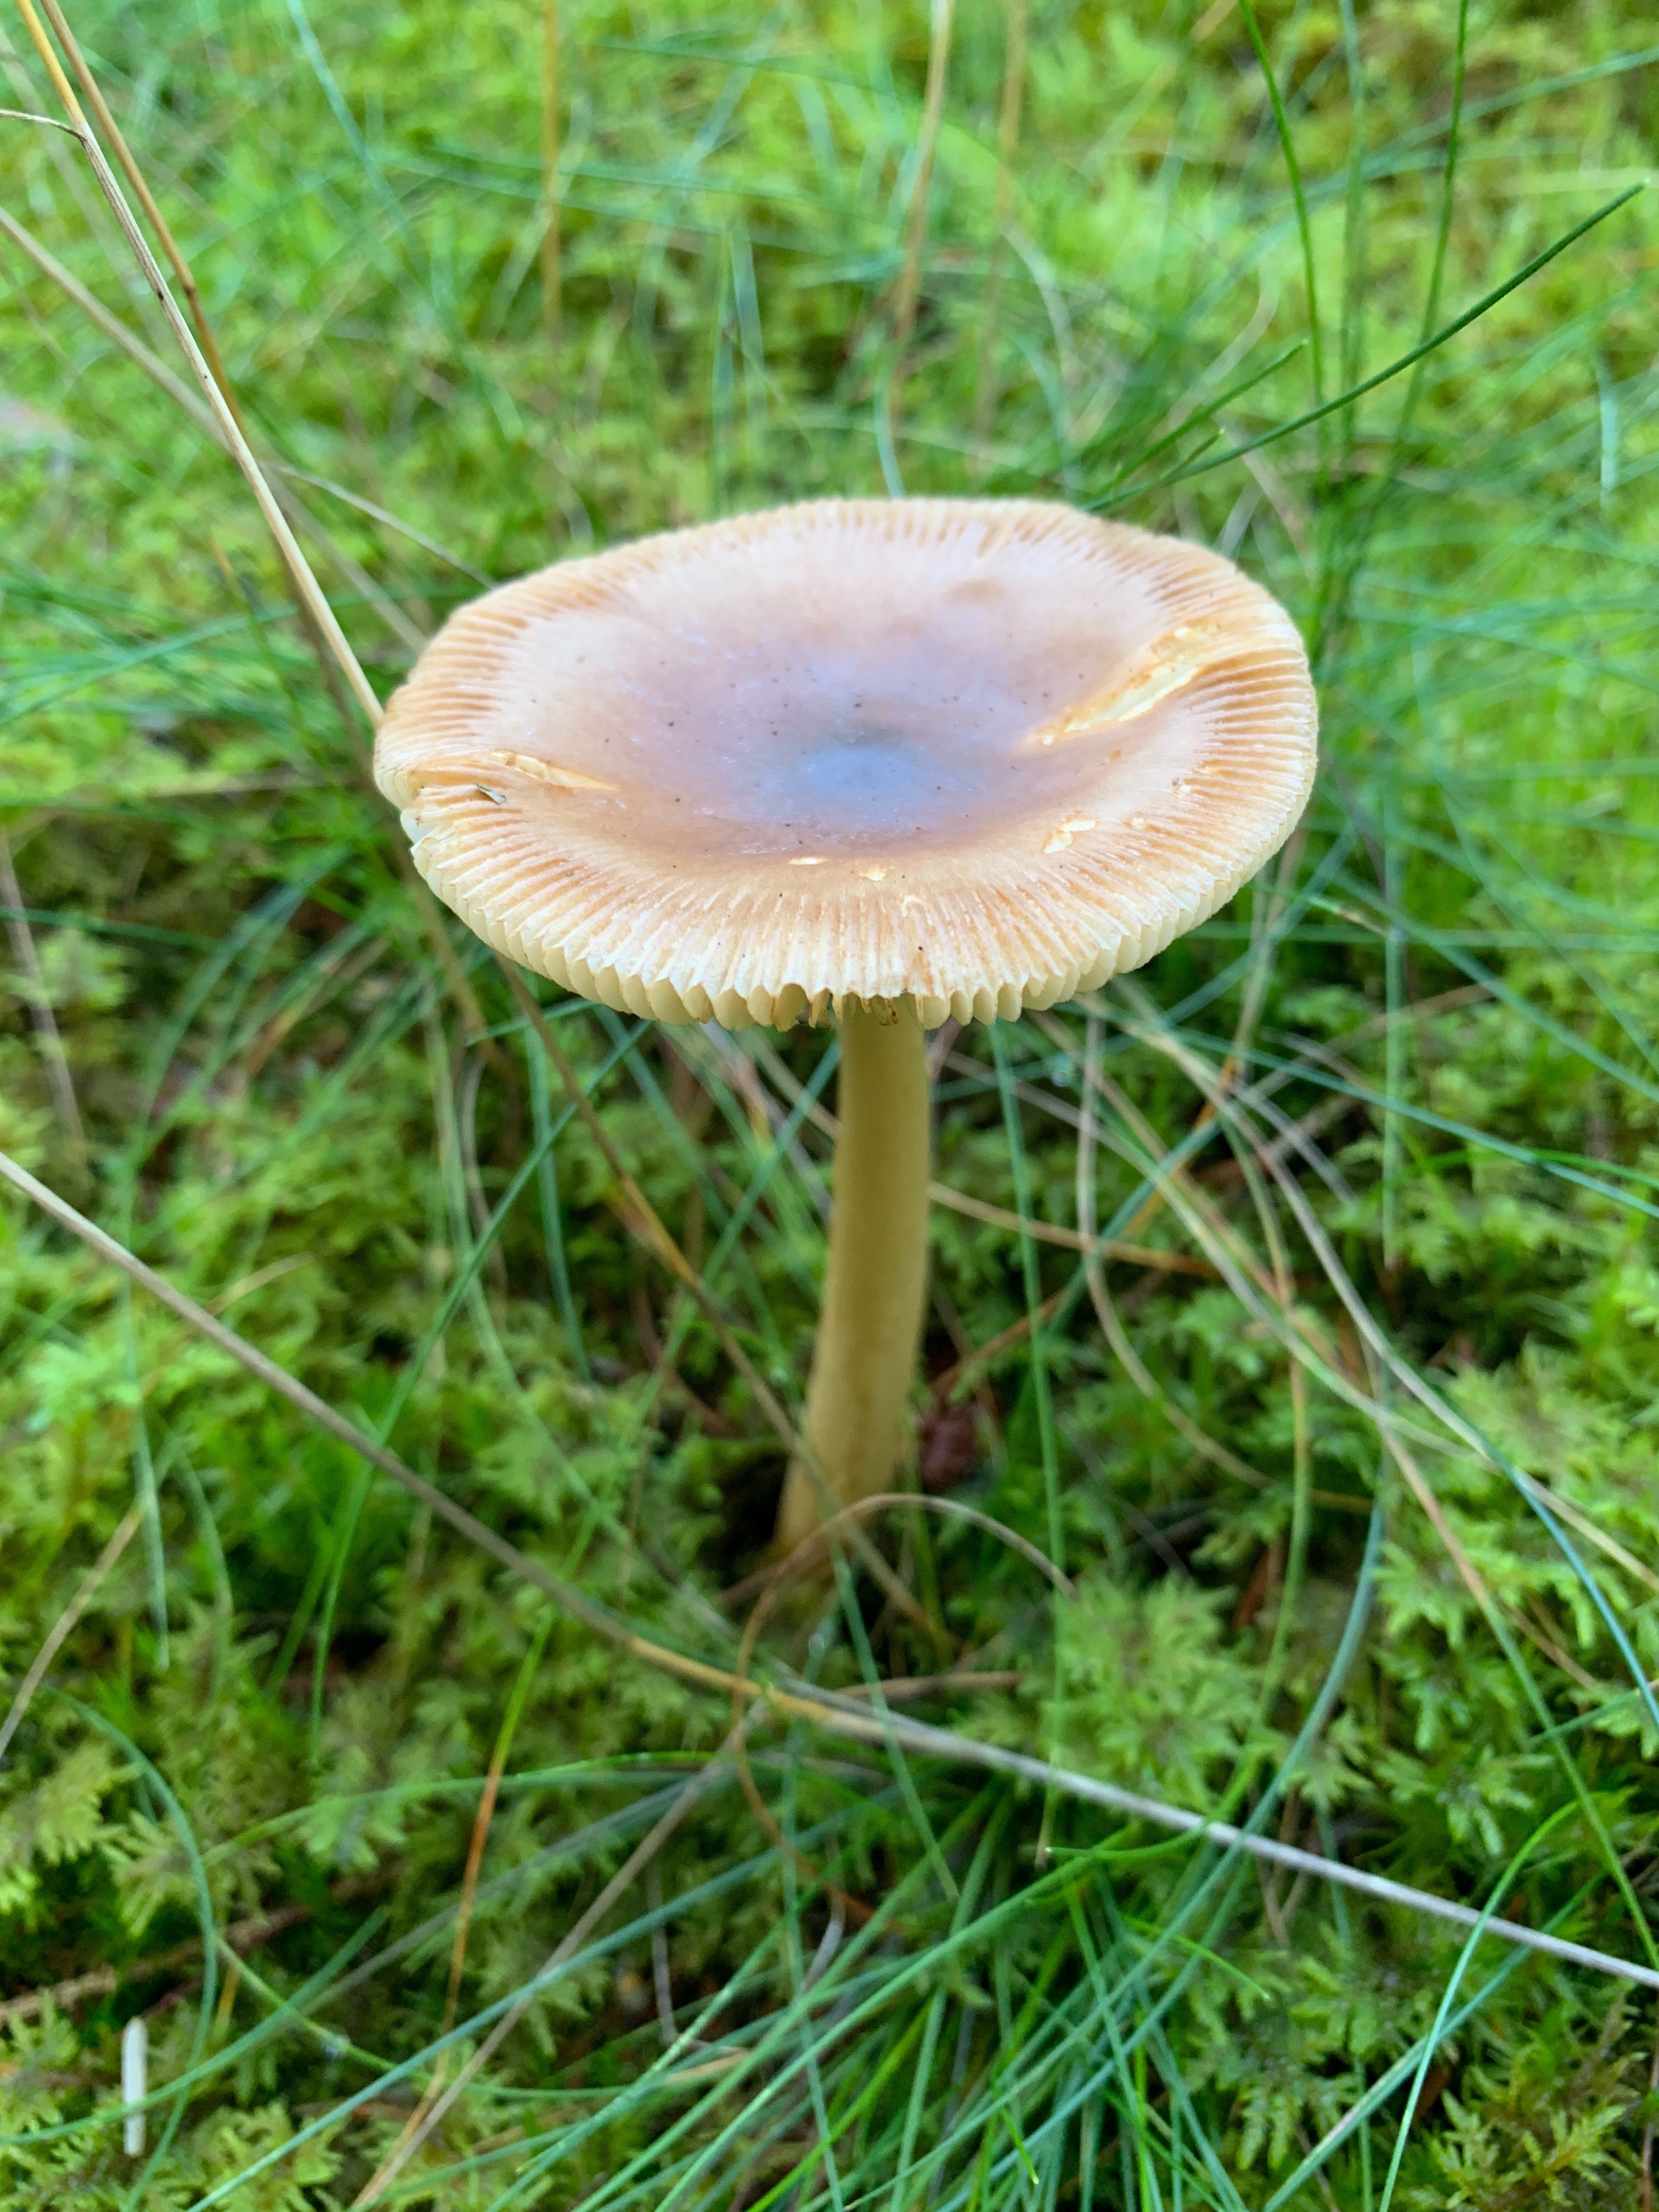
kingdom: Fungi
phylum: Basidiomycota
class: Agaricomycetes
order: Agaricales
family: Amanitaceae
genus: Amanita
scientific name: Amanita fulva
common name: brun kam-fluesvamp
